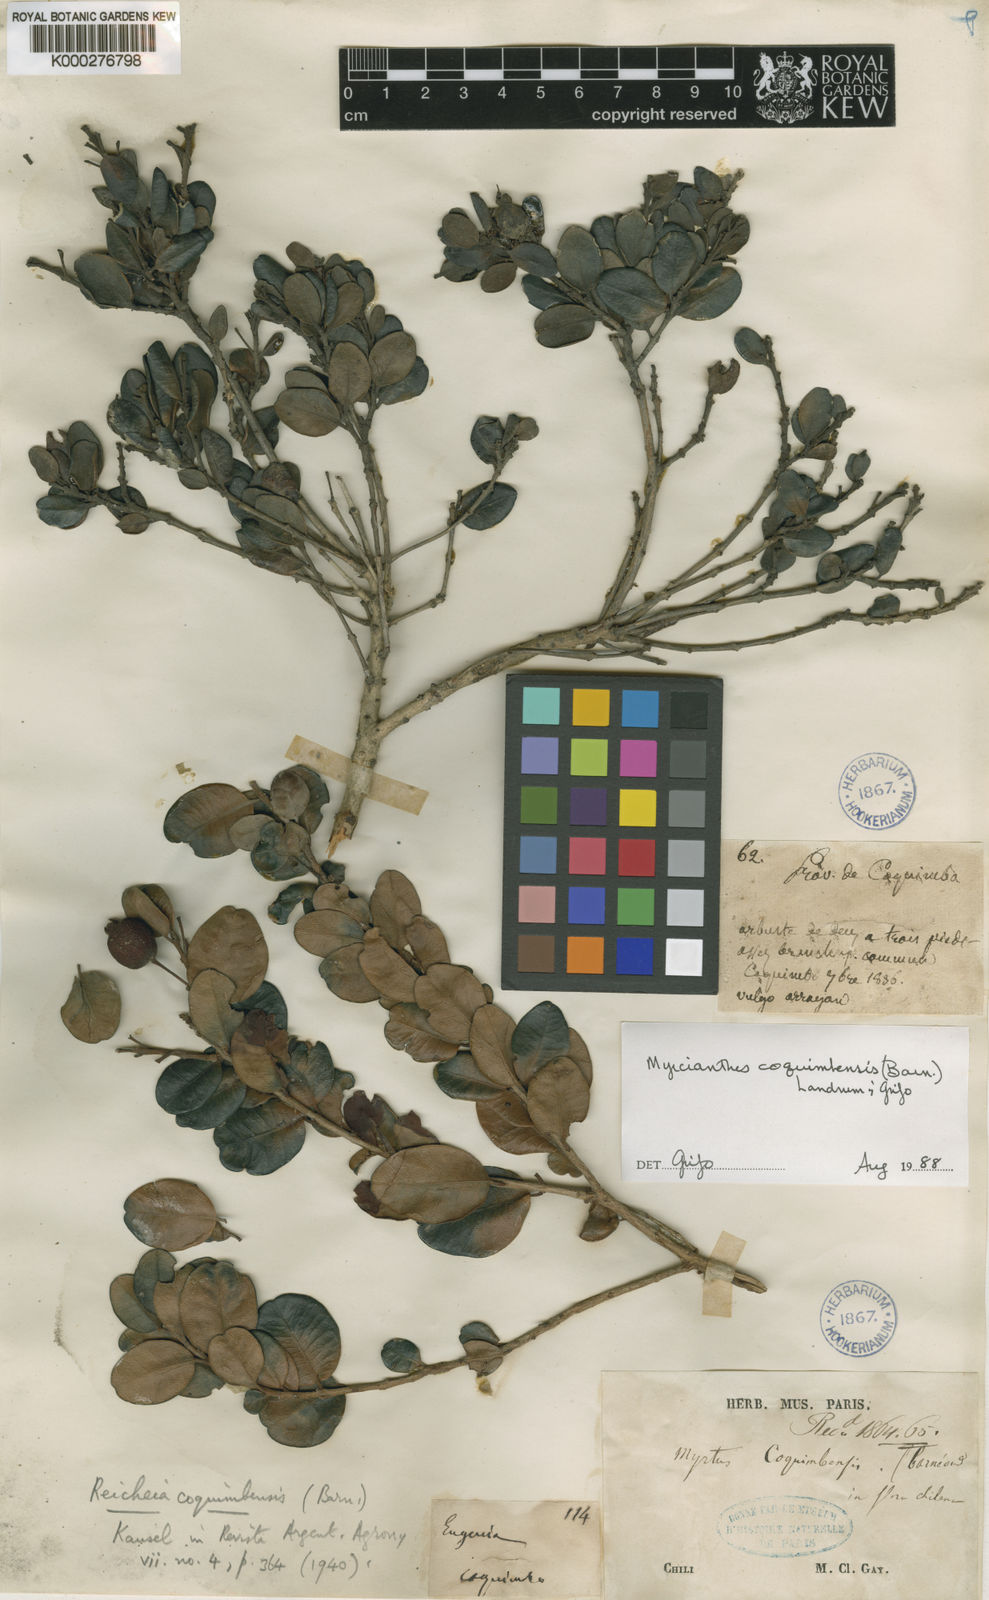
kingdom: Plantae
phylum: Tracheophyta
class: Magnoliopsida
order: Myrtales
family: Myrtaceae
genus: Myrcianthes
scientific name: Myrcianthes
